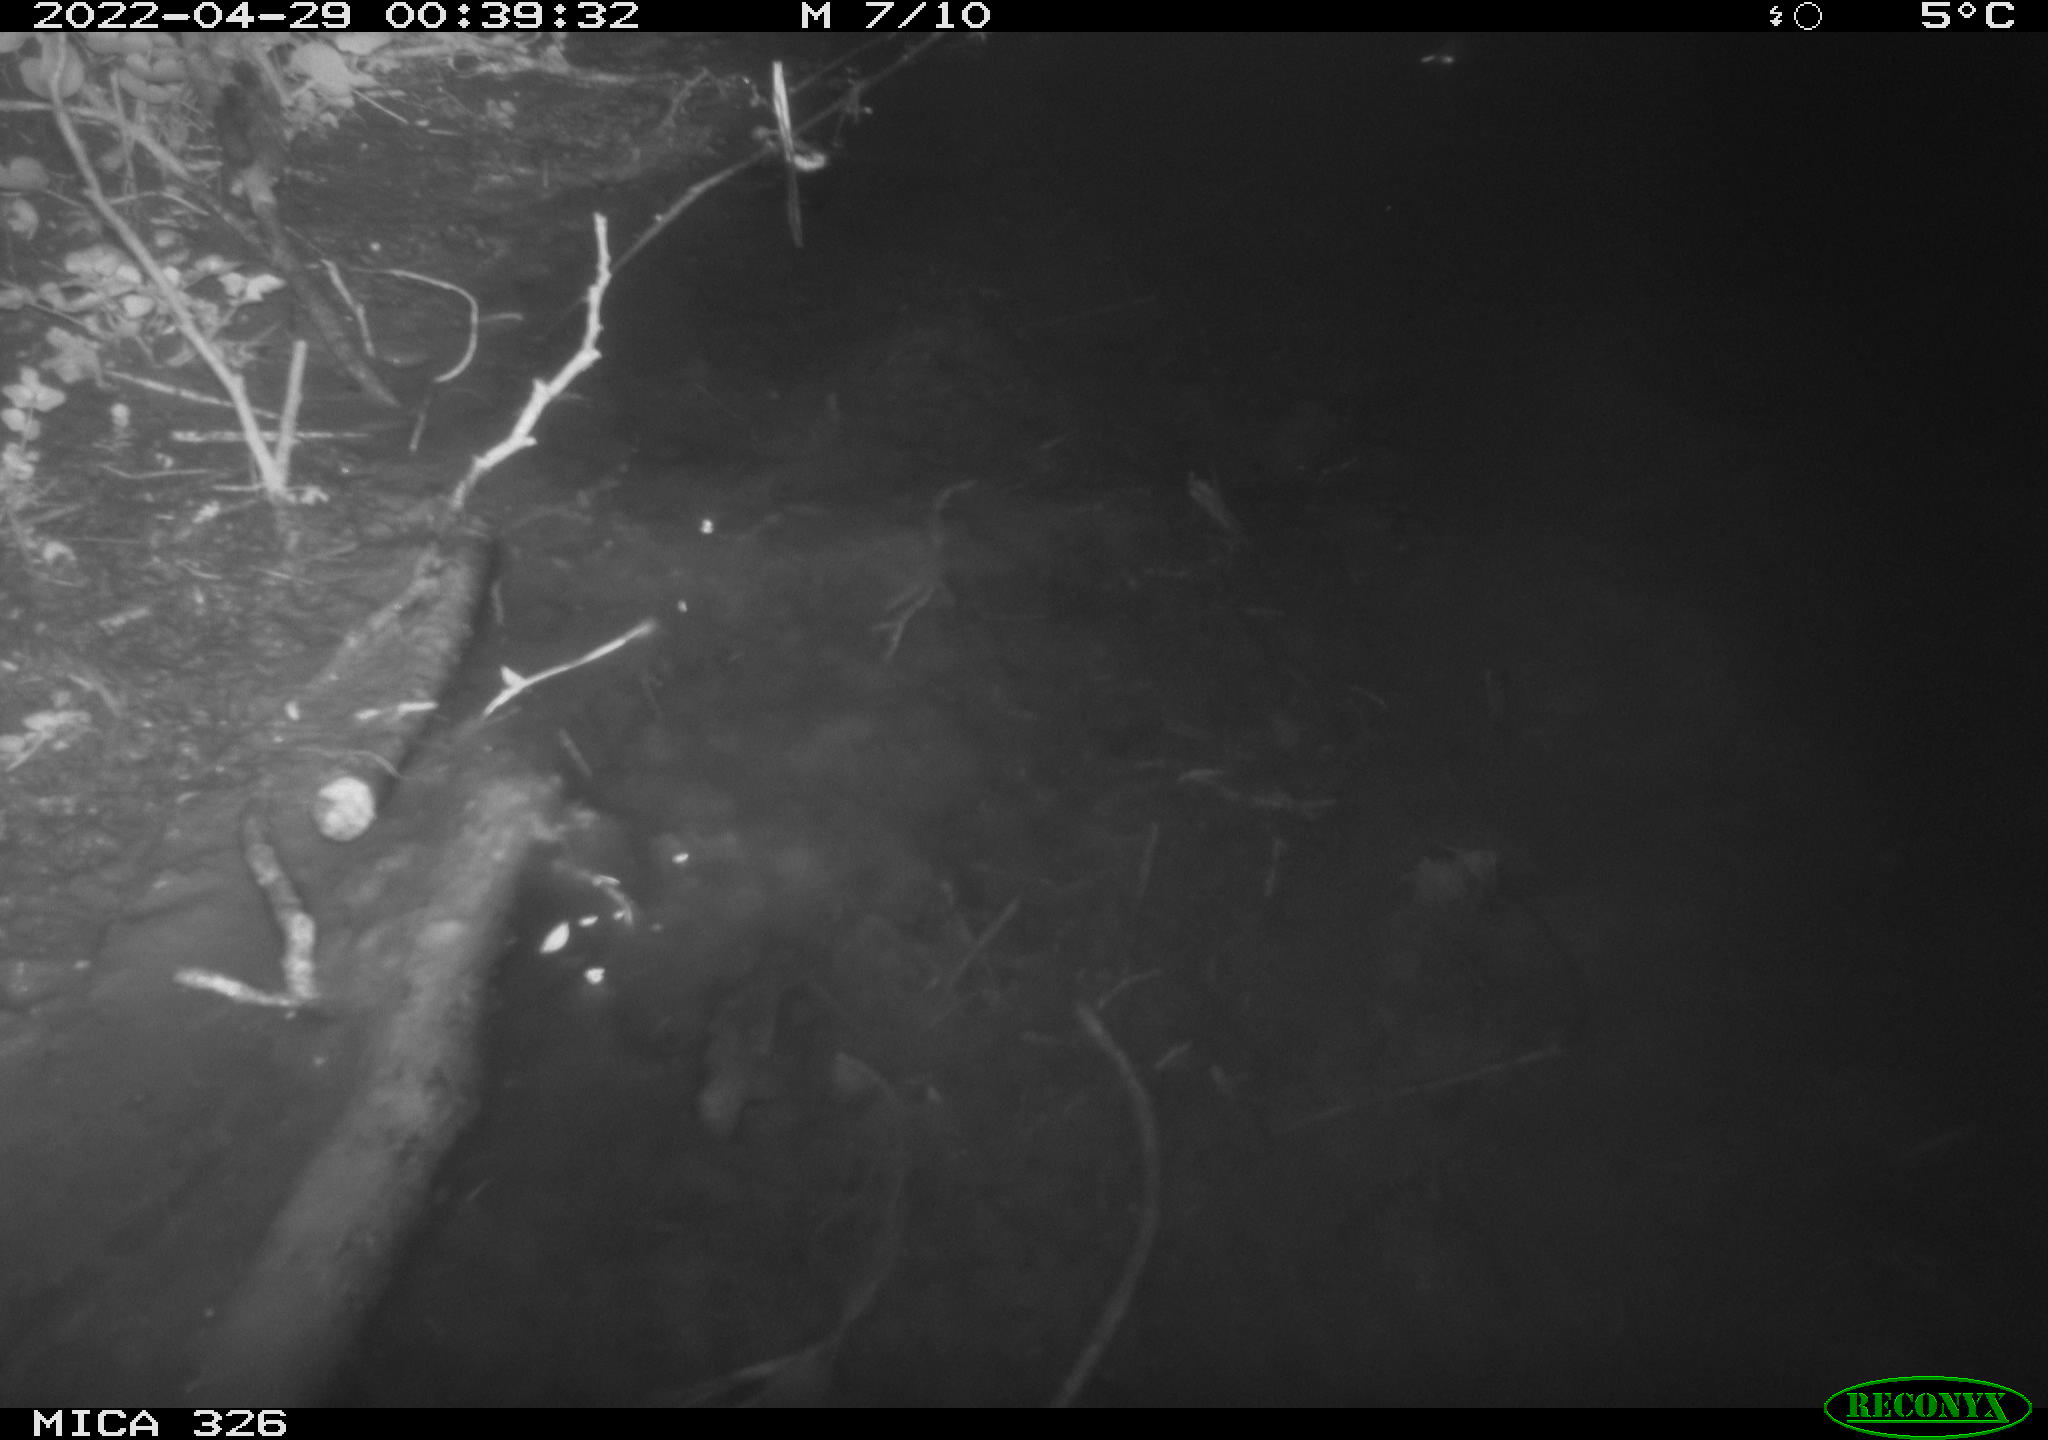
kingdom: Animalia
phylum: Chordata
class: Mammalia
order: Rodentia
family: Muridae
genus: Rattus
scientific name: Rattus norvegicus
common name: Brown rat
